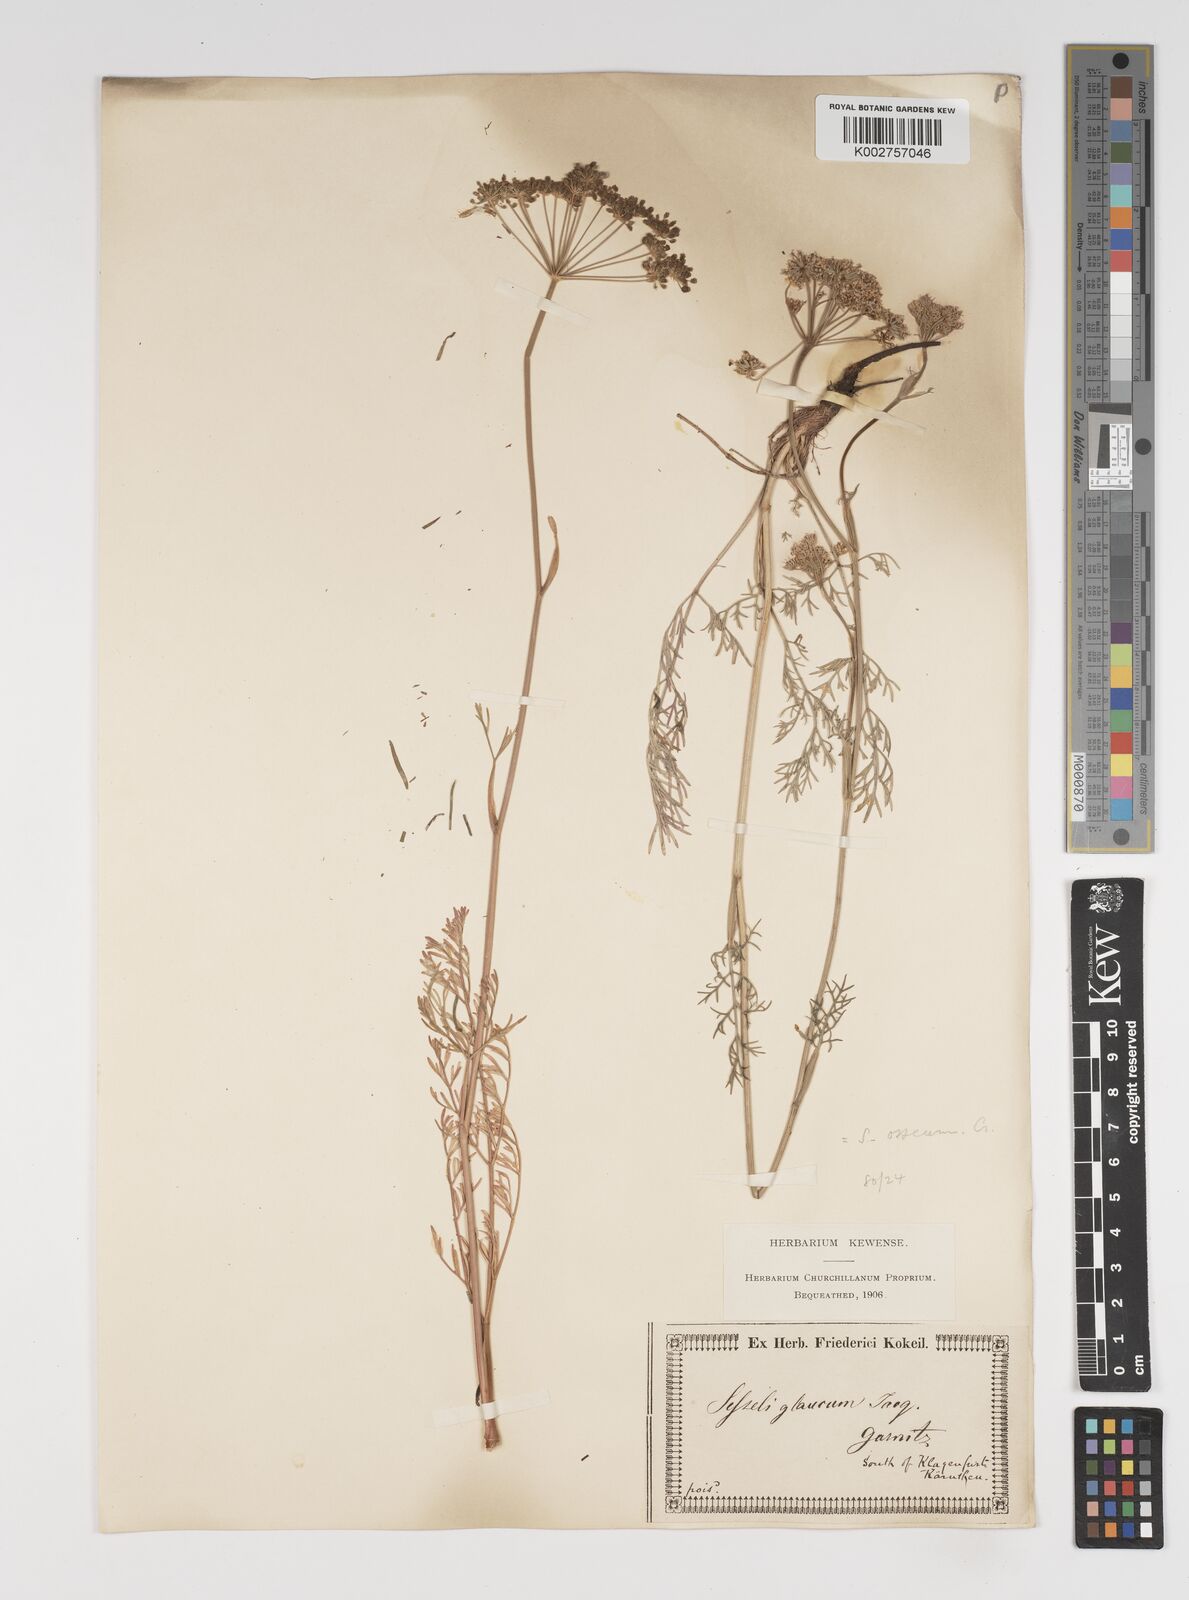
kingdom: Plantae
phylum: Tracheophyta
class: Magnoliopsida
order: Apiales
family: Apiaceae
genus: Seseli
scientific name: Seseli montanum
